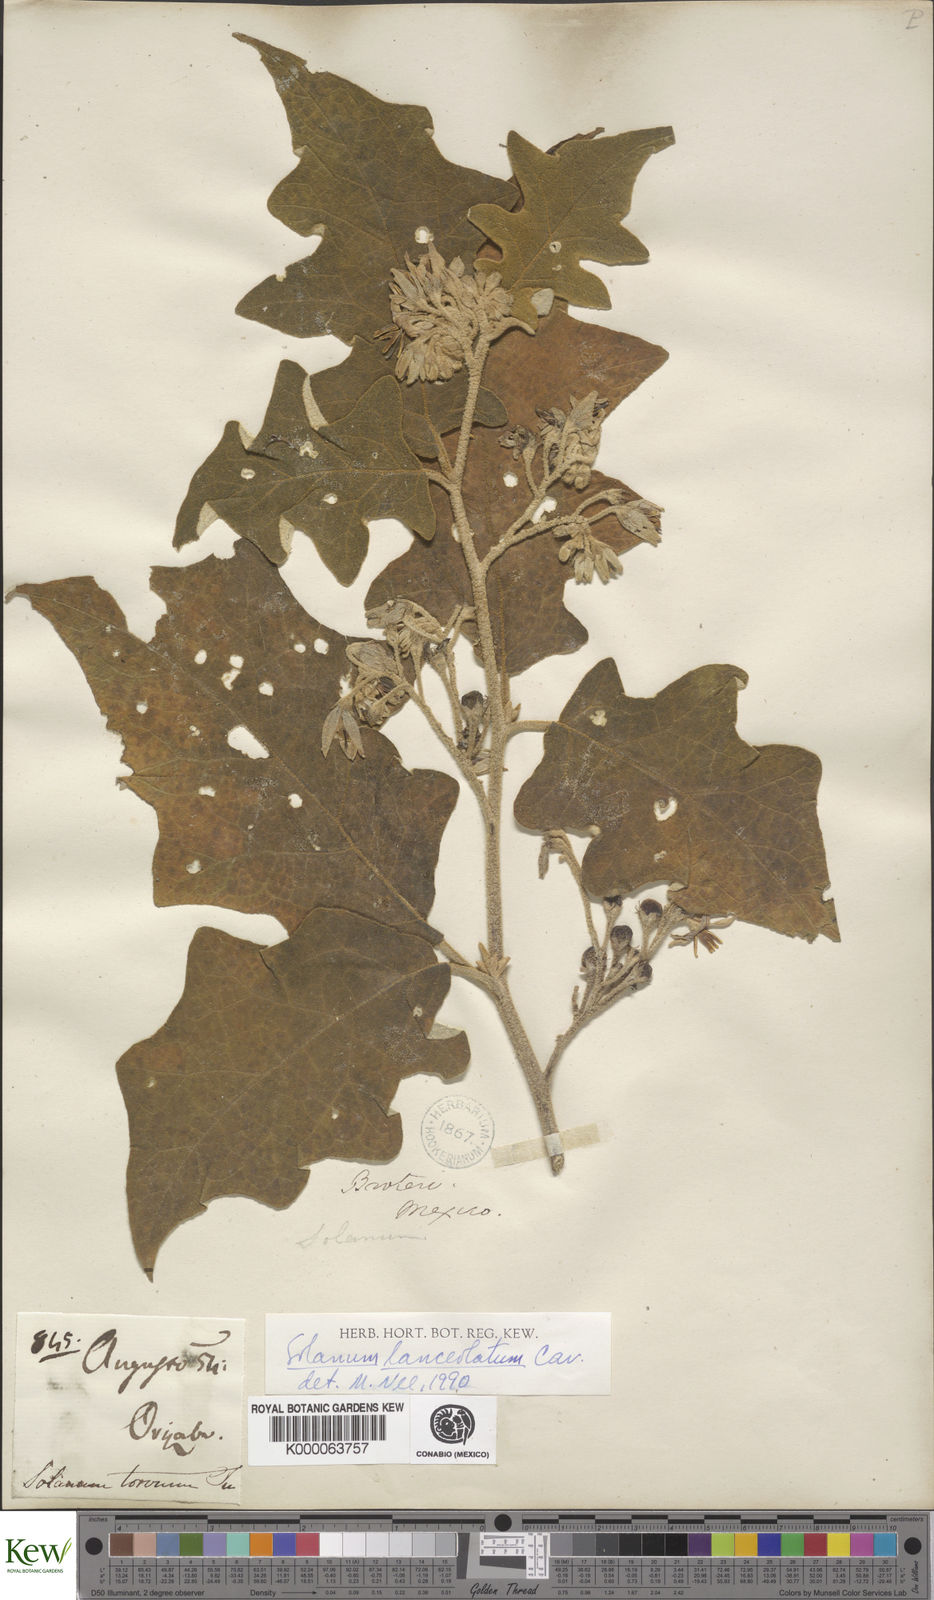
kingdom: Plantae
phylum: Tracheophyta
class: Magnoliopsida
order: Solanales
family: Solanaceae
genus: Solanum
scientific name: Solanum lanceolatum
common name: Orangeberry nightshade
